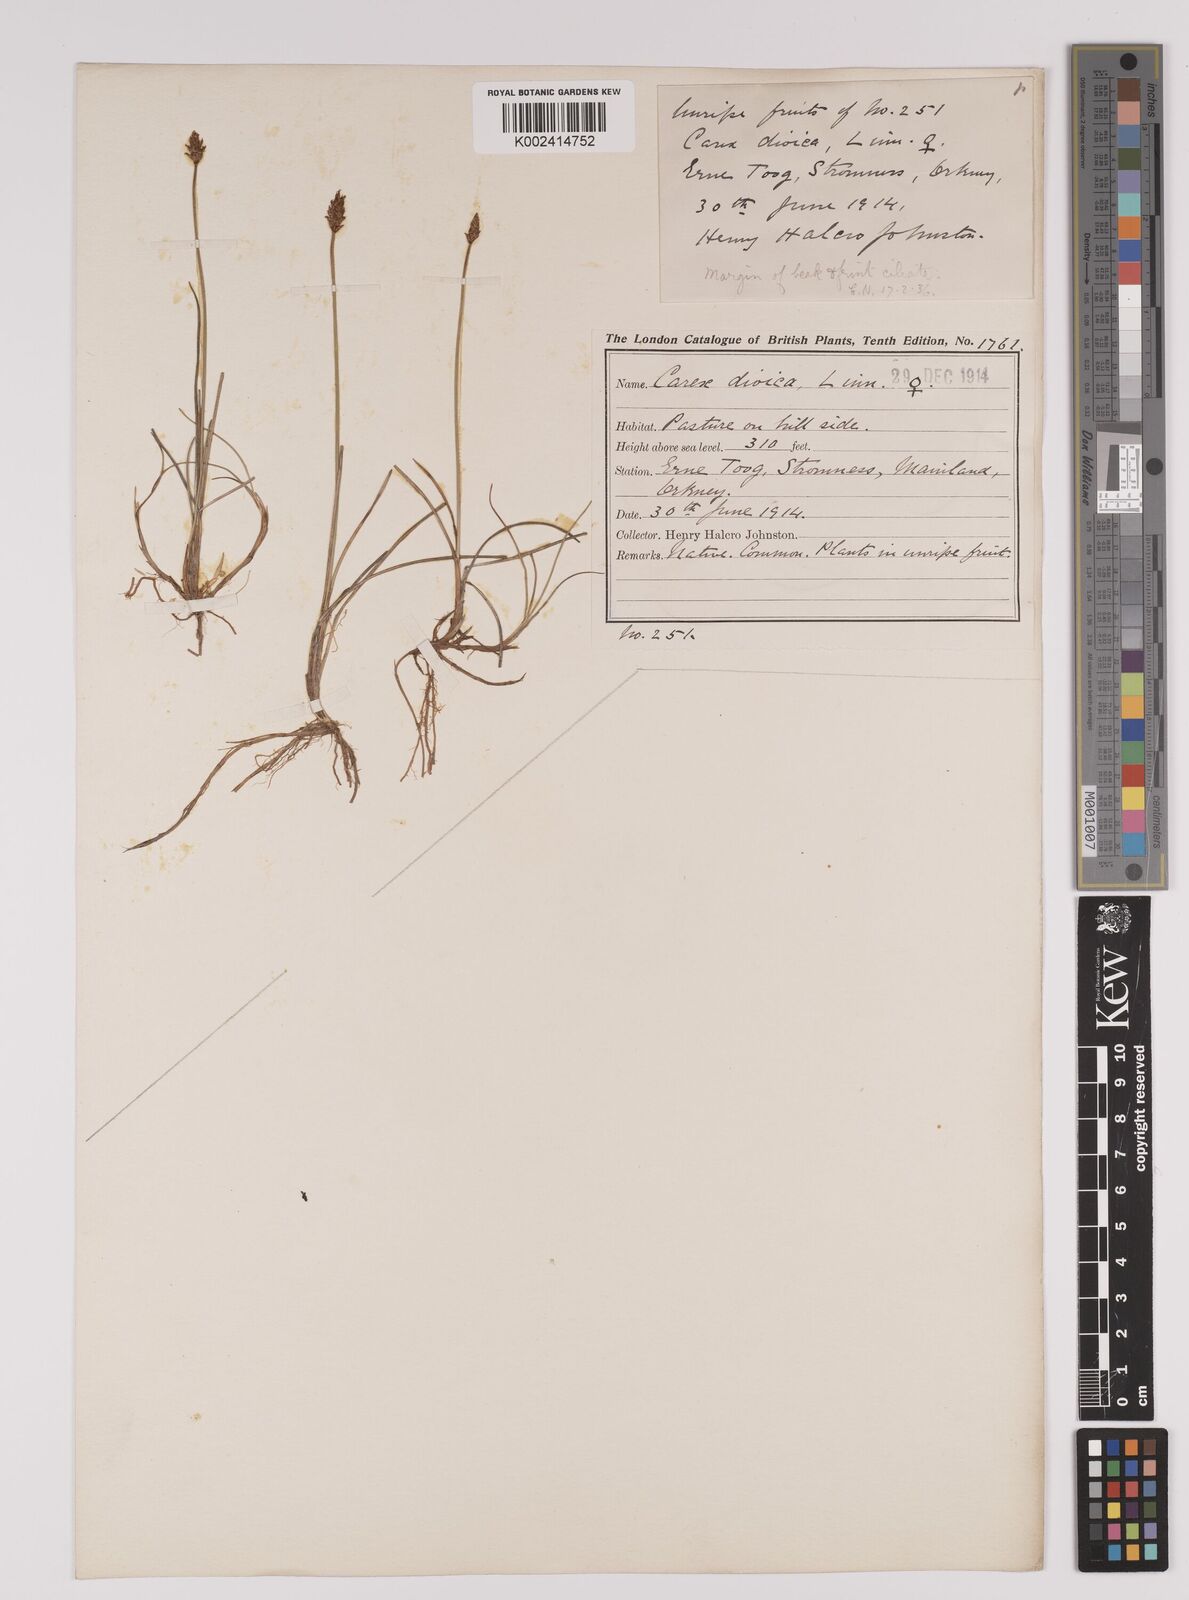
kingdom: Plantae
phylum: Tracheophyta
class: Liliopsida
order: Poales
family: Cyperaceae
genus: Carex
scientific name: Carex dioica
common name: Dioecious sedge
